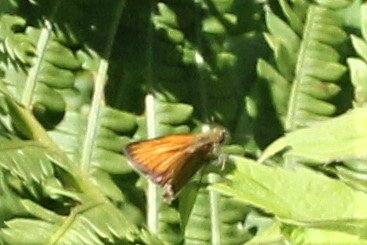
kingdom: Animalia
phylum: Arthropoda
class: Insecta
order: Lepidoptera
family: Hesperiidae
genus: Thymelicus
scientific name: Thymelicus lineola
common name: European Skipper
